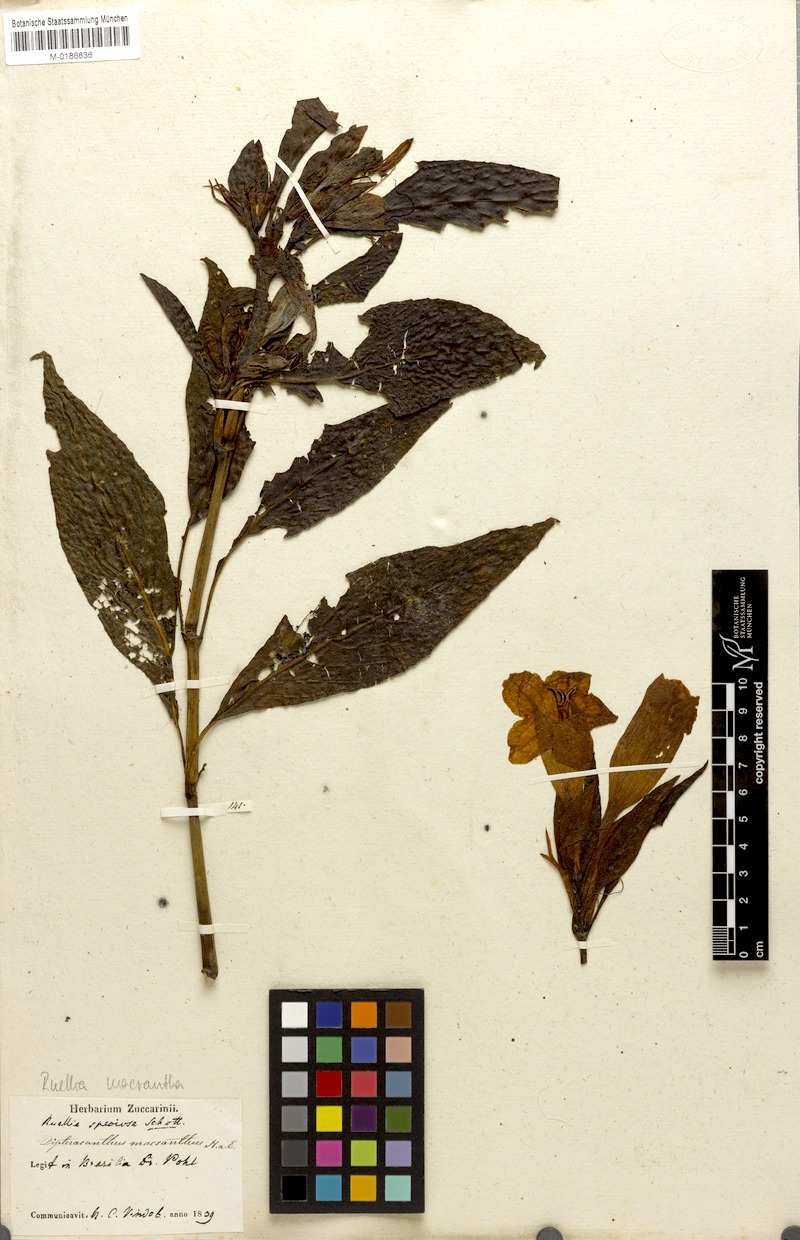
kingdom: Plantae
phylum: Tracheophyta
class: Magnoliopsida
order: Lamiales
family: Acanthaceae
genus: Ruellia
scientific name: Ruellia macrantha
